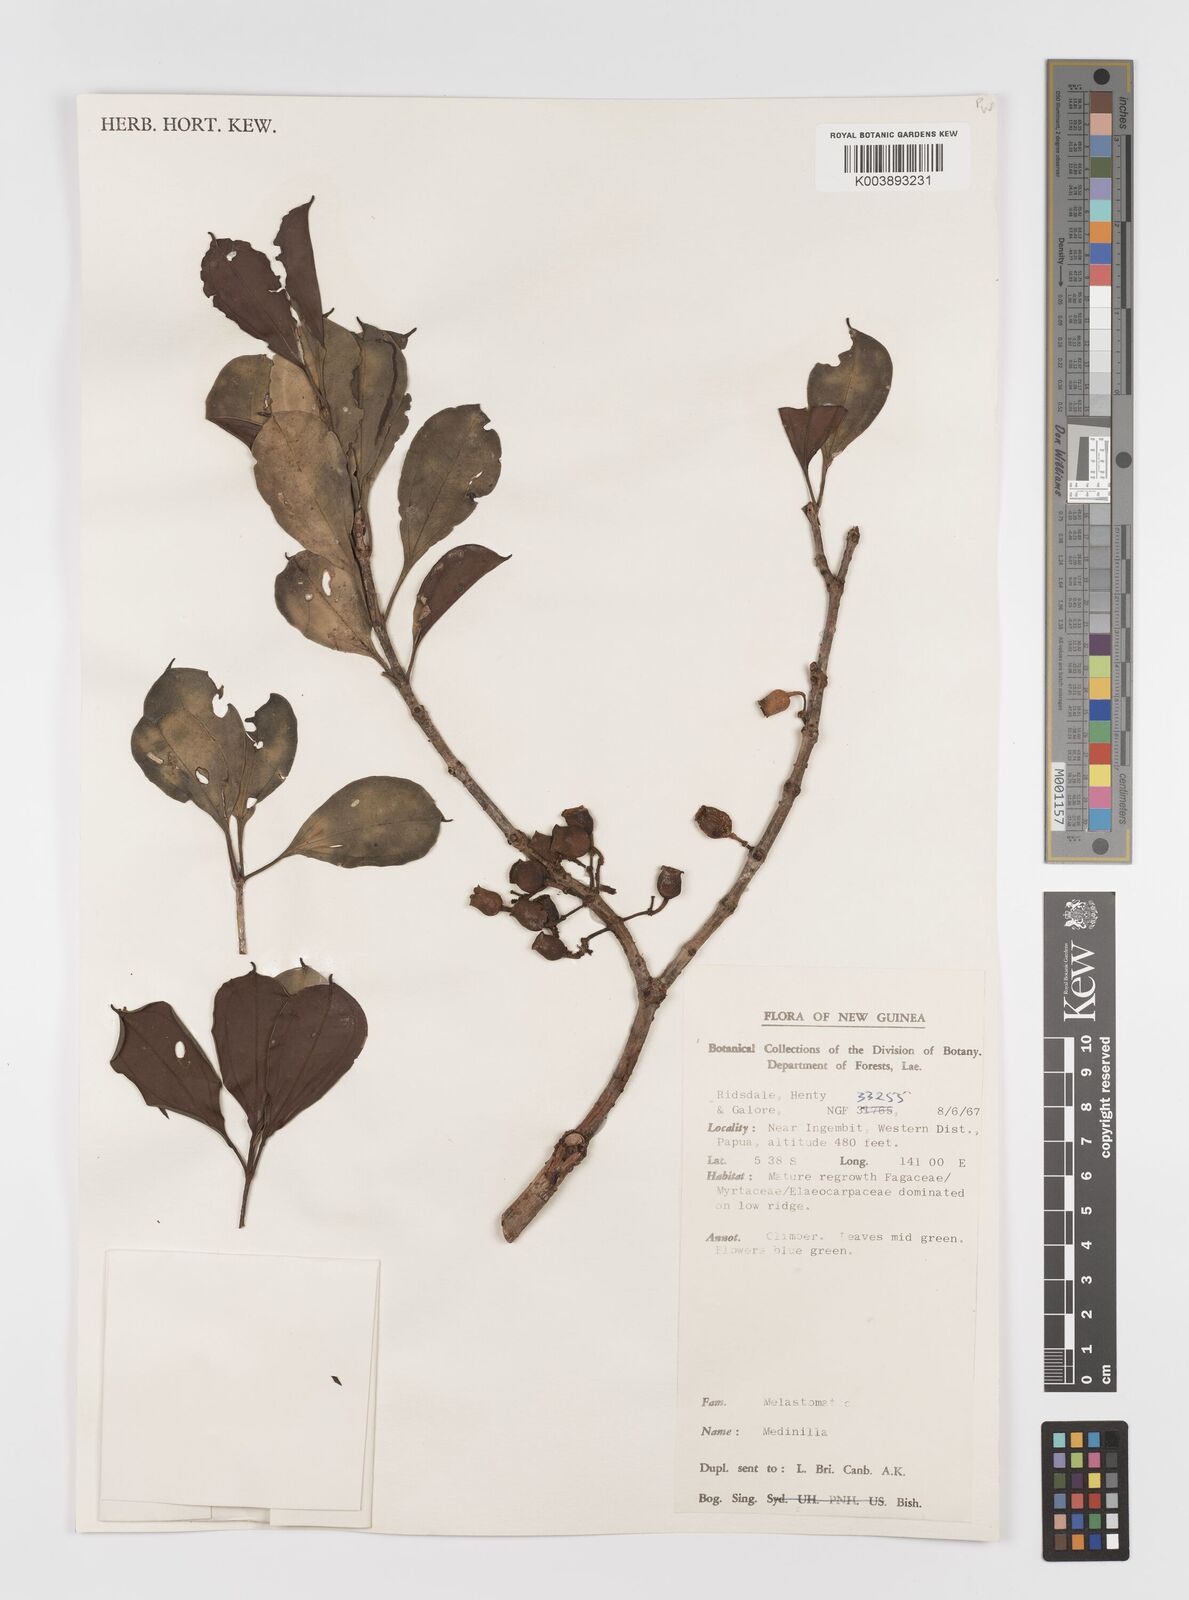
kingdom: Plantae
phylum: Tracheophyta
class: Magnoliopsida
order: Myrtales
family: Melastomataceae
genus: Medinilla
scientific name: Medinilla
